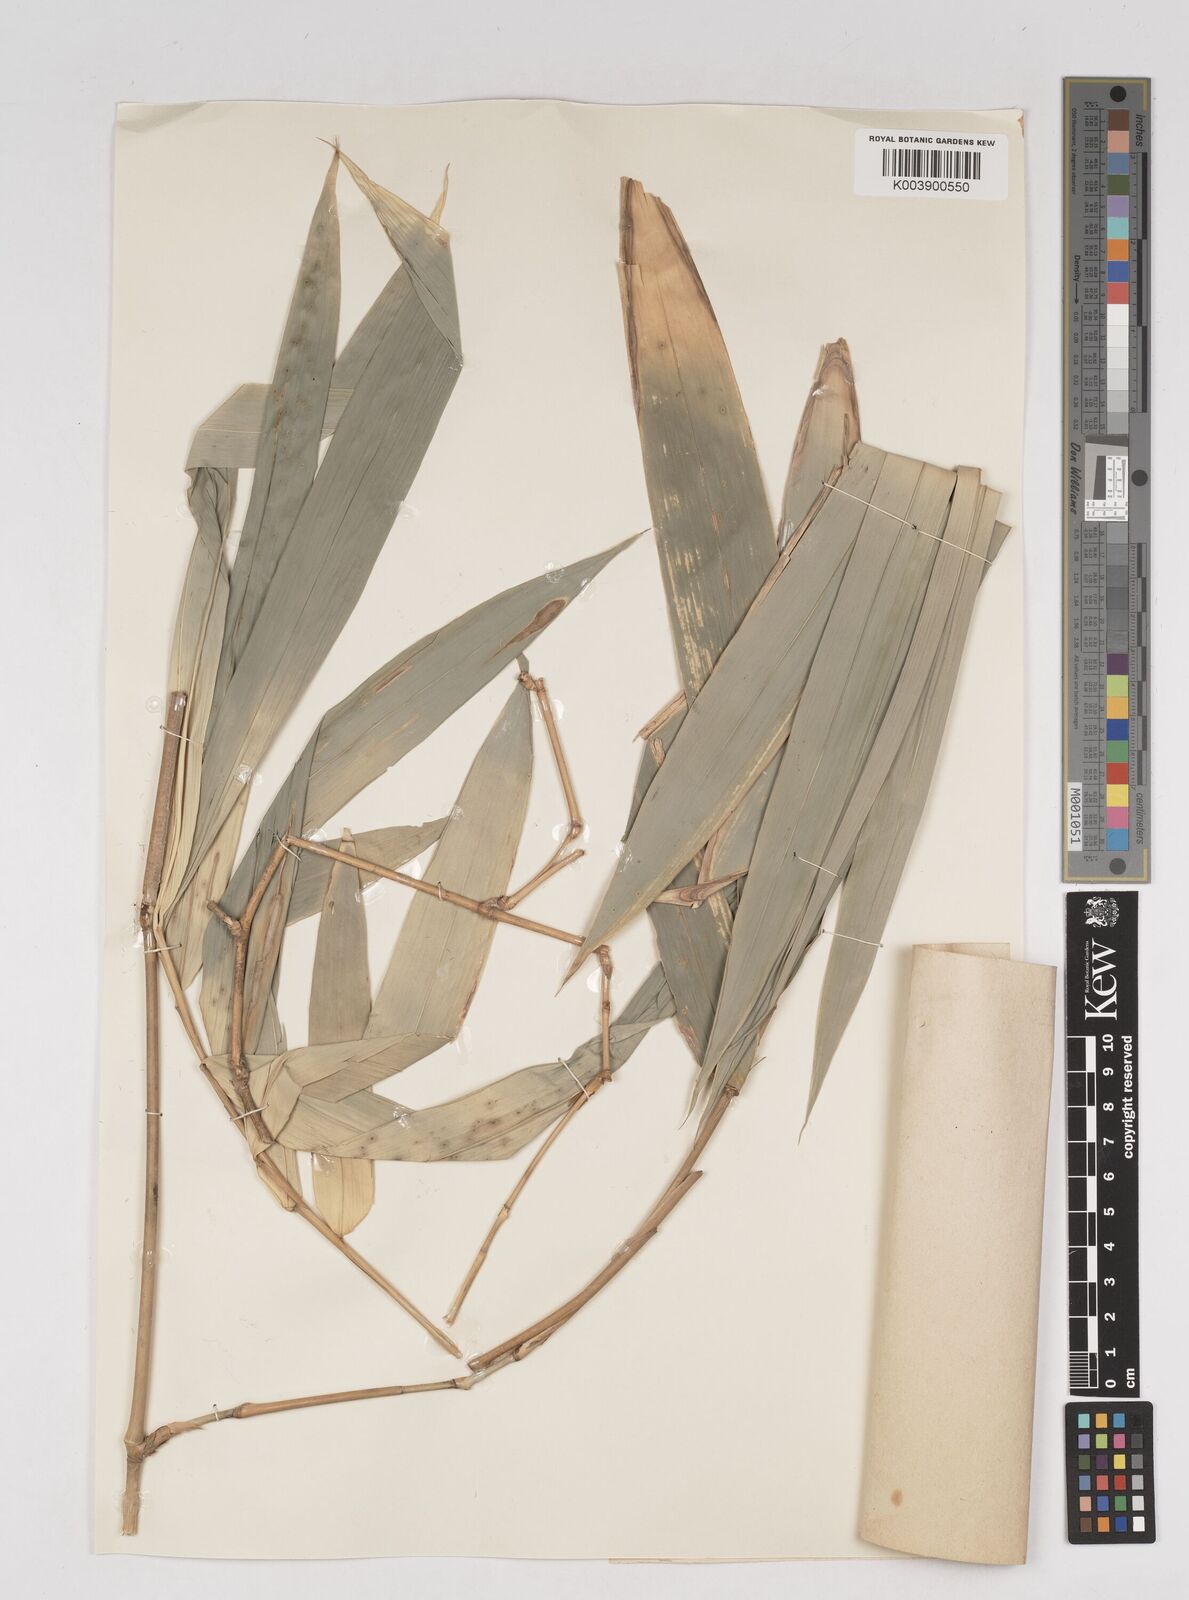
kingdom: Plantae
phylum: Tracheophyta
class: Liliopsida
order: Poales
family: Poaceae
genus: Gigantochloa
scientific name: Gigantochloa robusta
